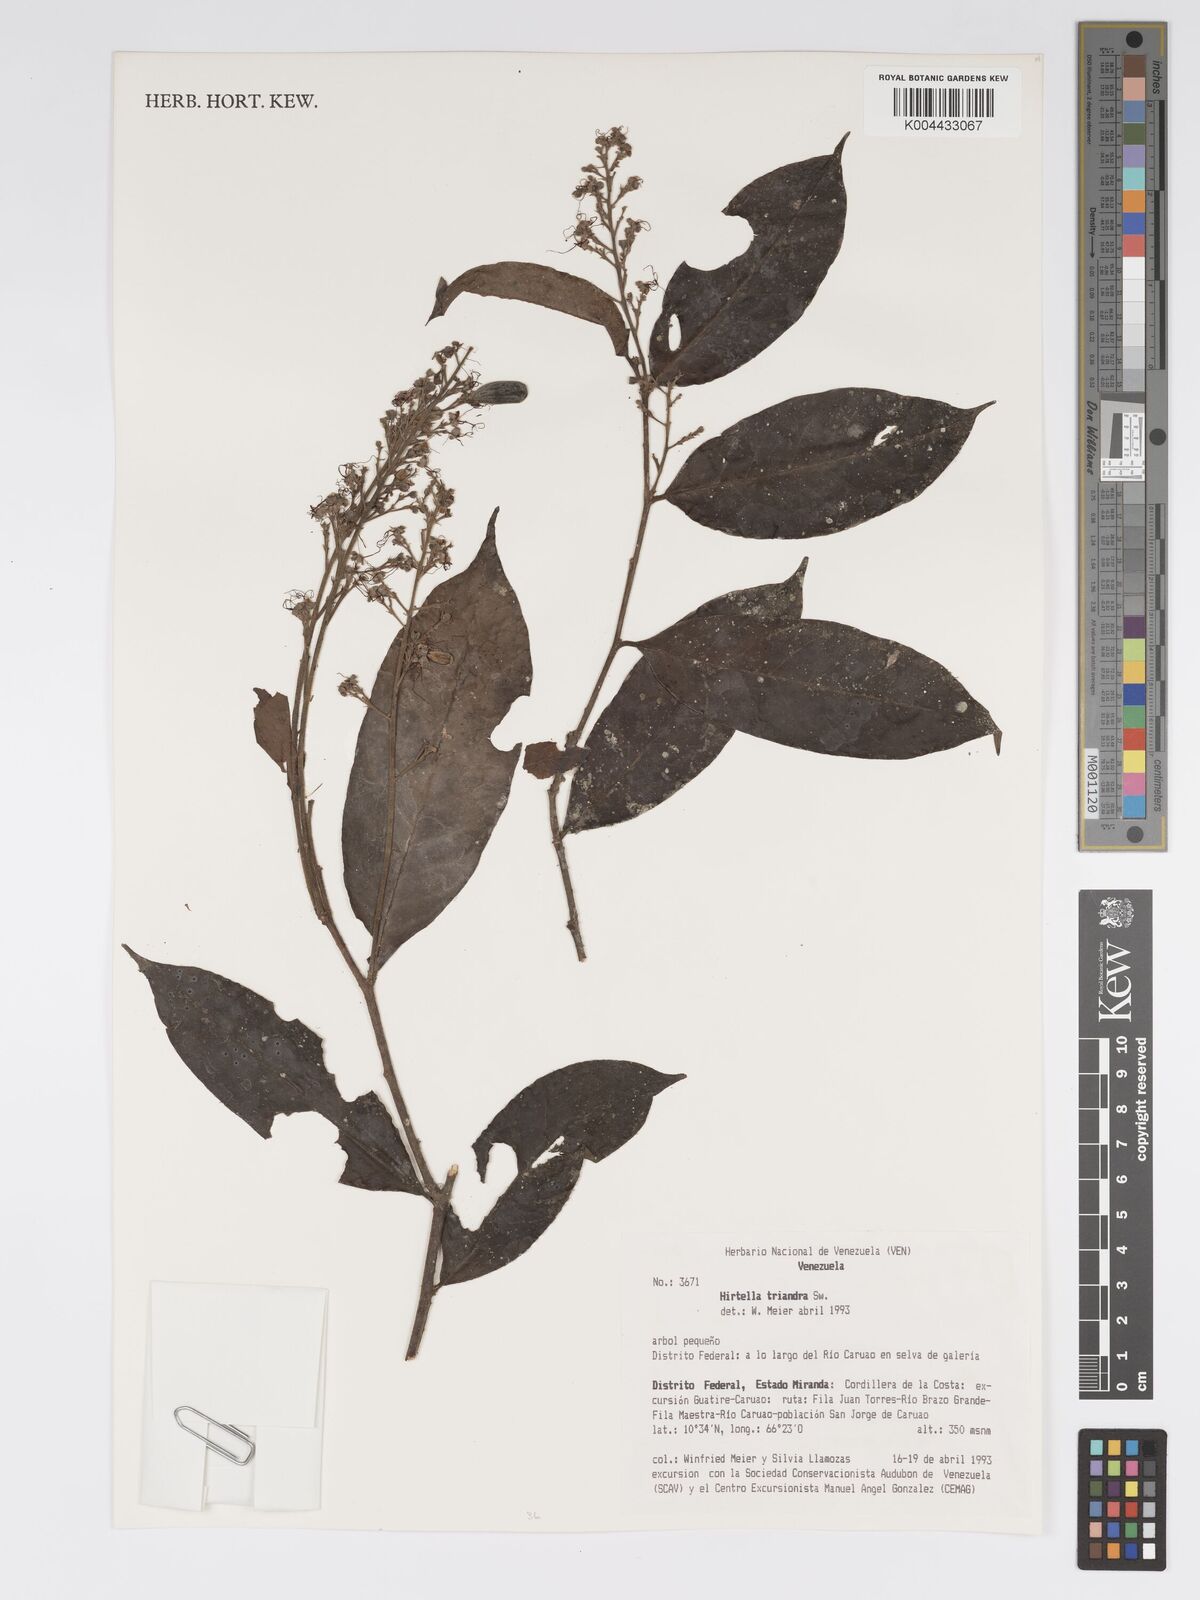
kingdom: Plantae
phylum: Tracheophyta
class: Magnoliopsida
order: Malpighiales
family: Chrysobalanaceae
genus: Hirtella
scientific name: Hirtella triandra
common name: Hairy plum
